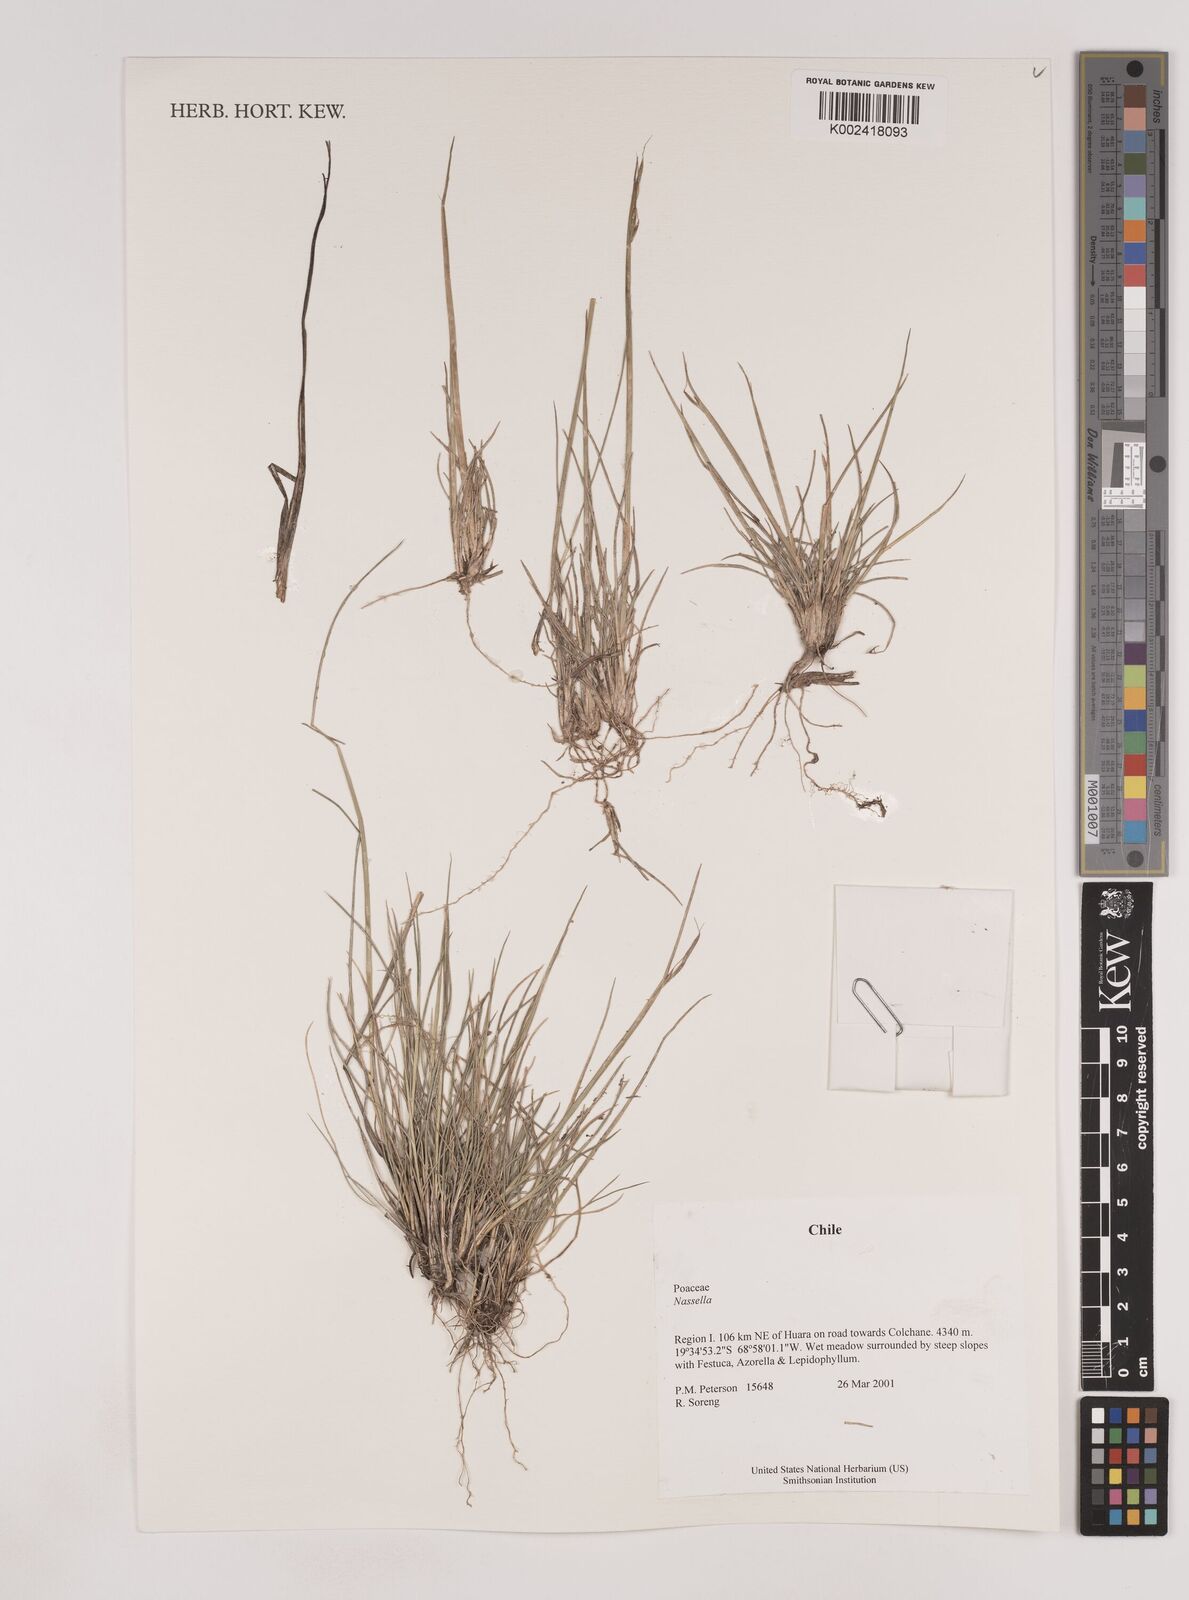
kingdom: Plantae
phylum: Tracheophyta
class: Liliopsida
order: Poales
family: Poaceae
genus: Nassella
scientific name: Nassella
